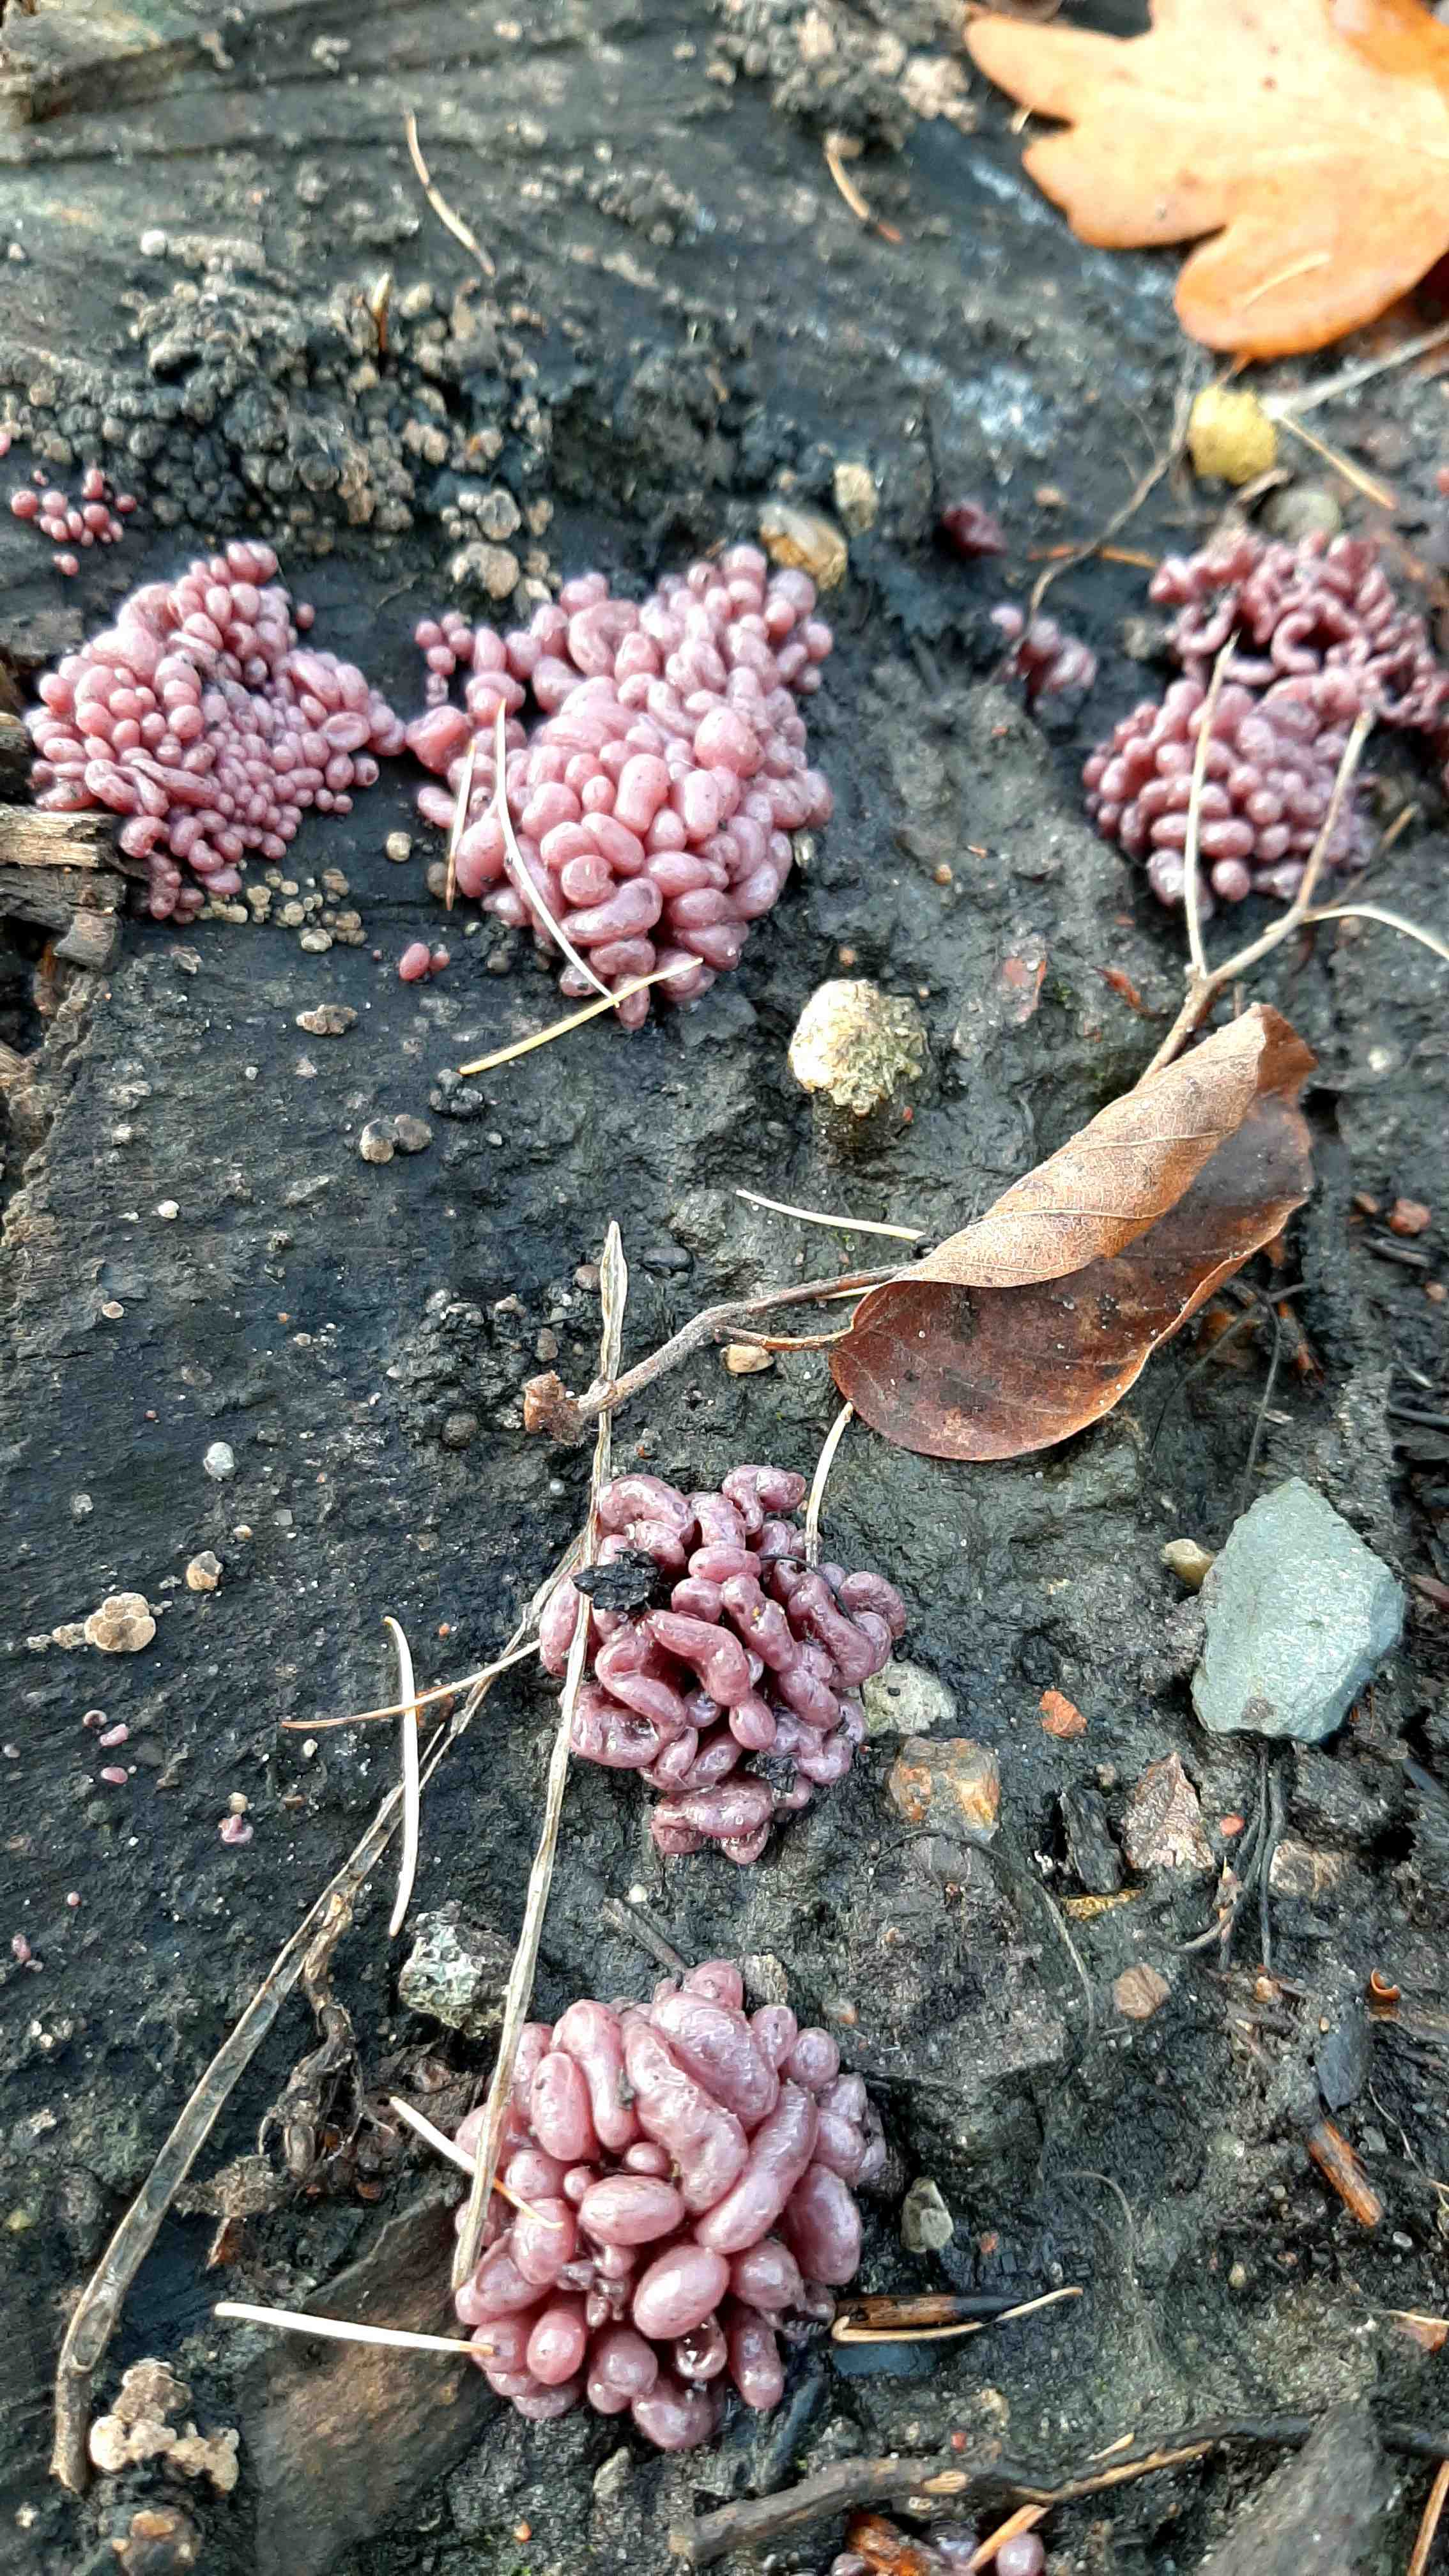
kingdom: Fungi
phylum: Ascomycota
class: Leotiomycetes
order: Helotiales
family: Gelatinodiscaceae
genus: Ascocoryne
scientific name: Ascocoryne sarcoides
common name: rødlilla sejskive
